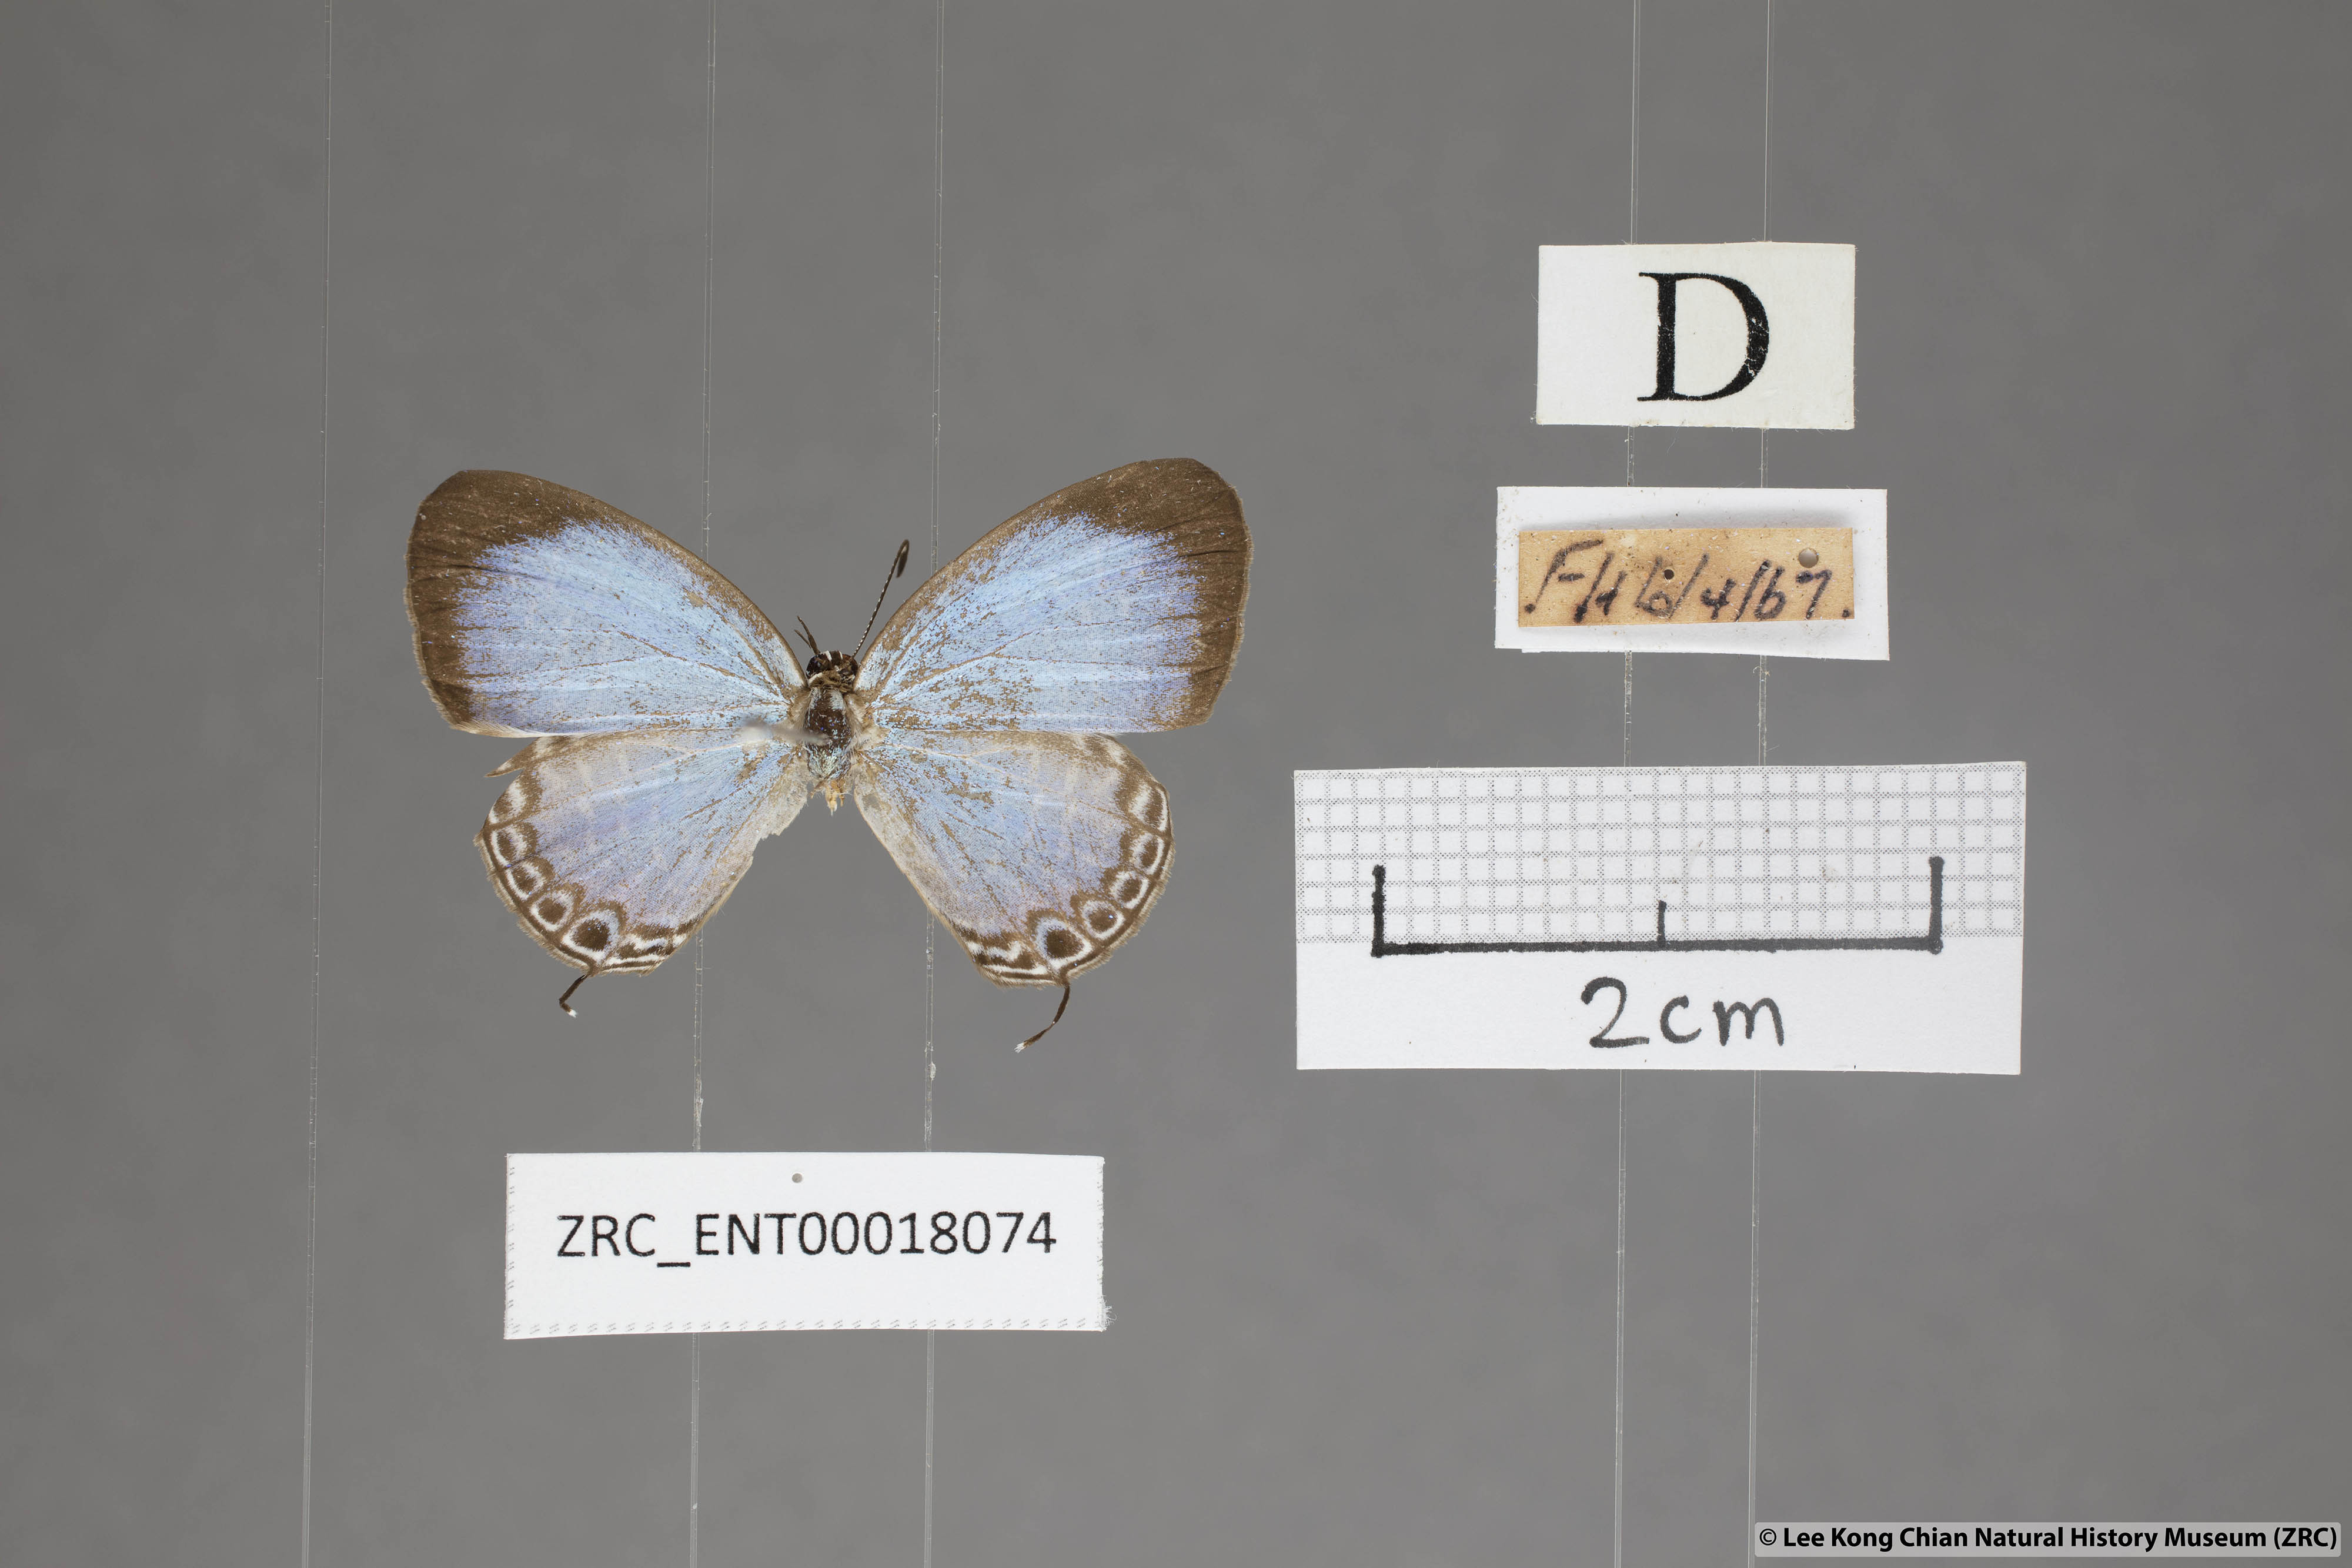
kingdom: Animalia
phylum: Arthropoda
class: Insecta
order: Lepidoptera
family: Lycaenidae
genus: Jamides
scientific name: Jamides caerulea
